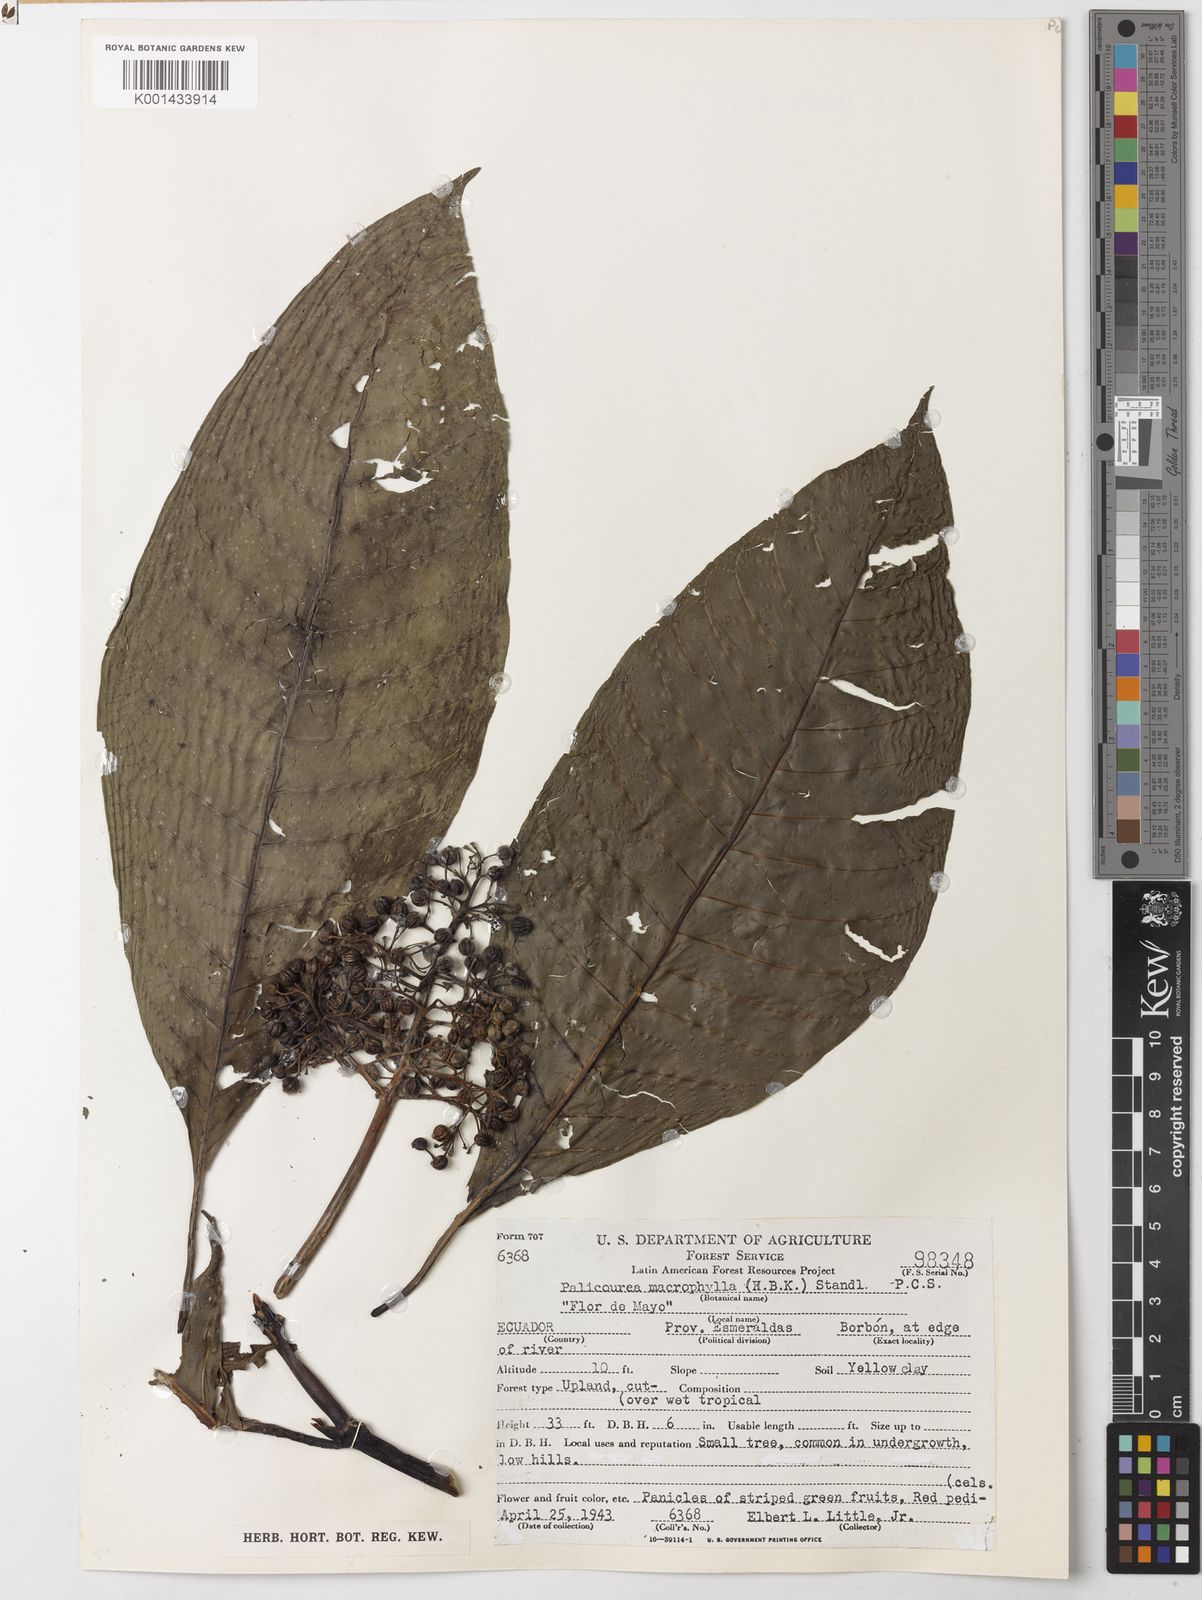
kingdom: Plantae
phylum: Tracheophyta
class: Magnoliopsida
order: Gentianales
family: Rubiaceae
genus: Palicourea
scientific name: Palicourea
